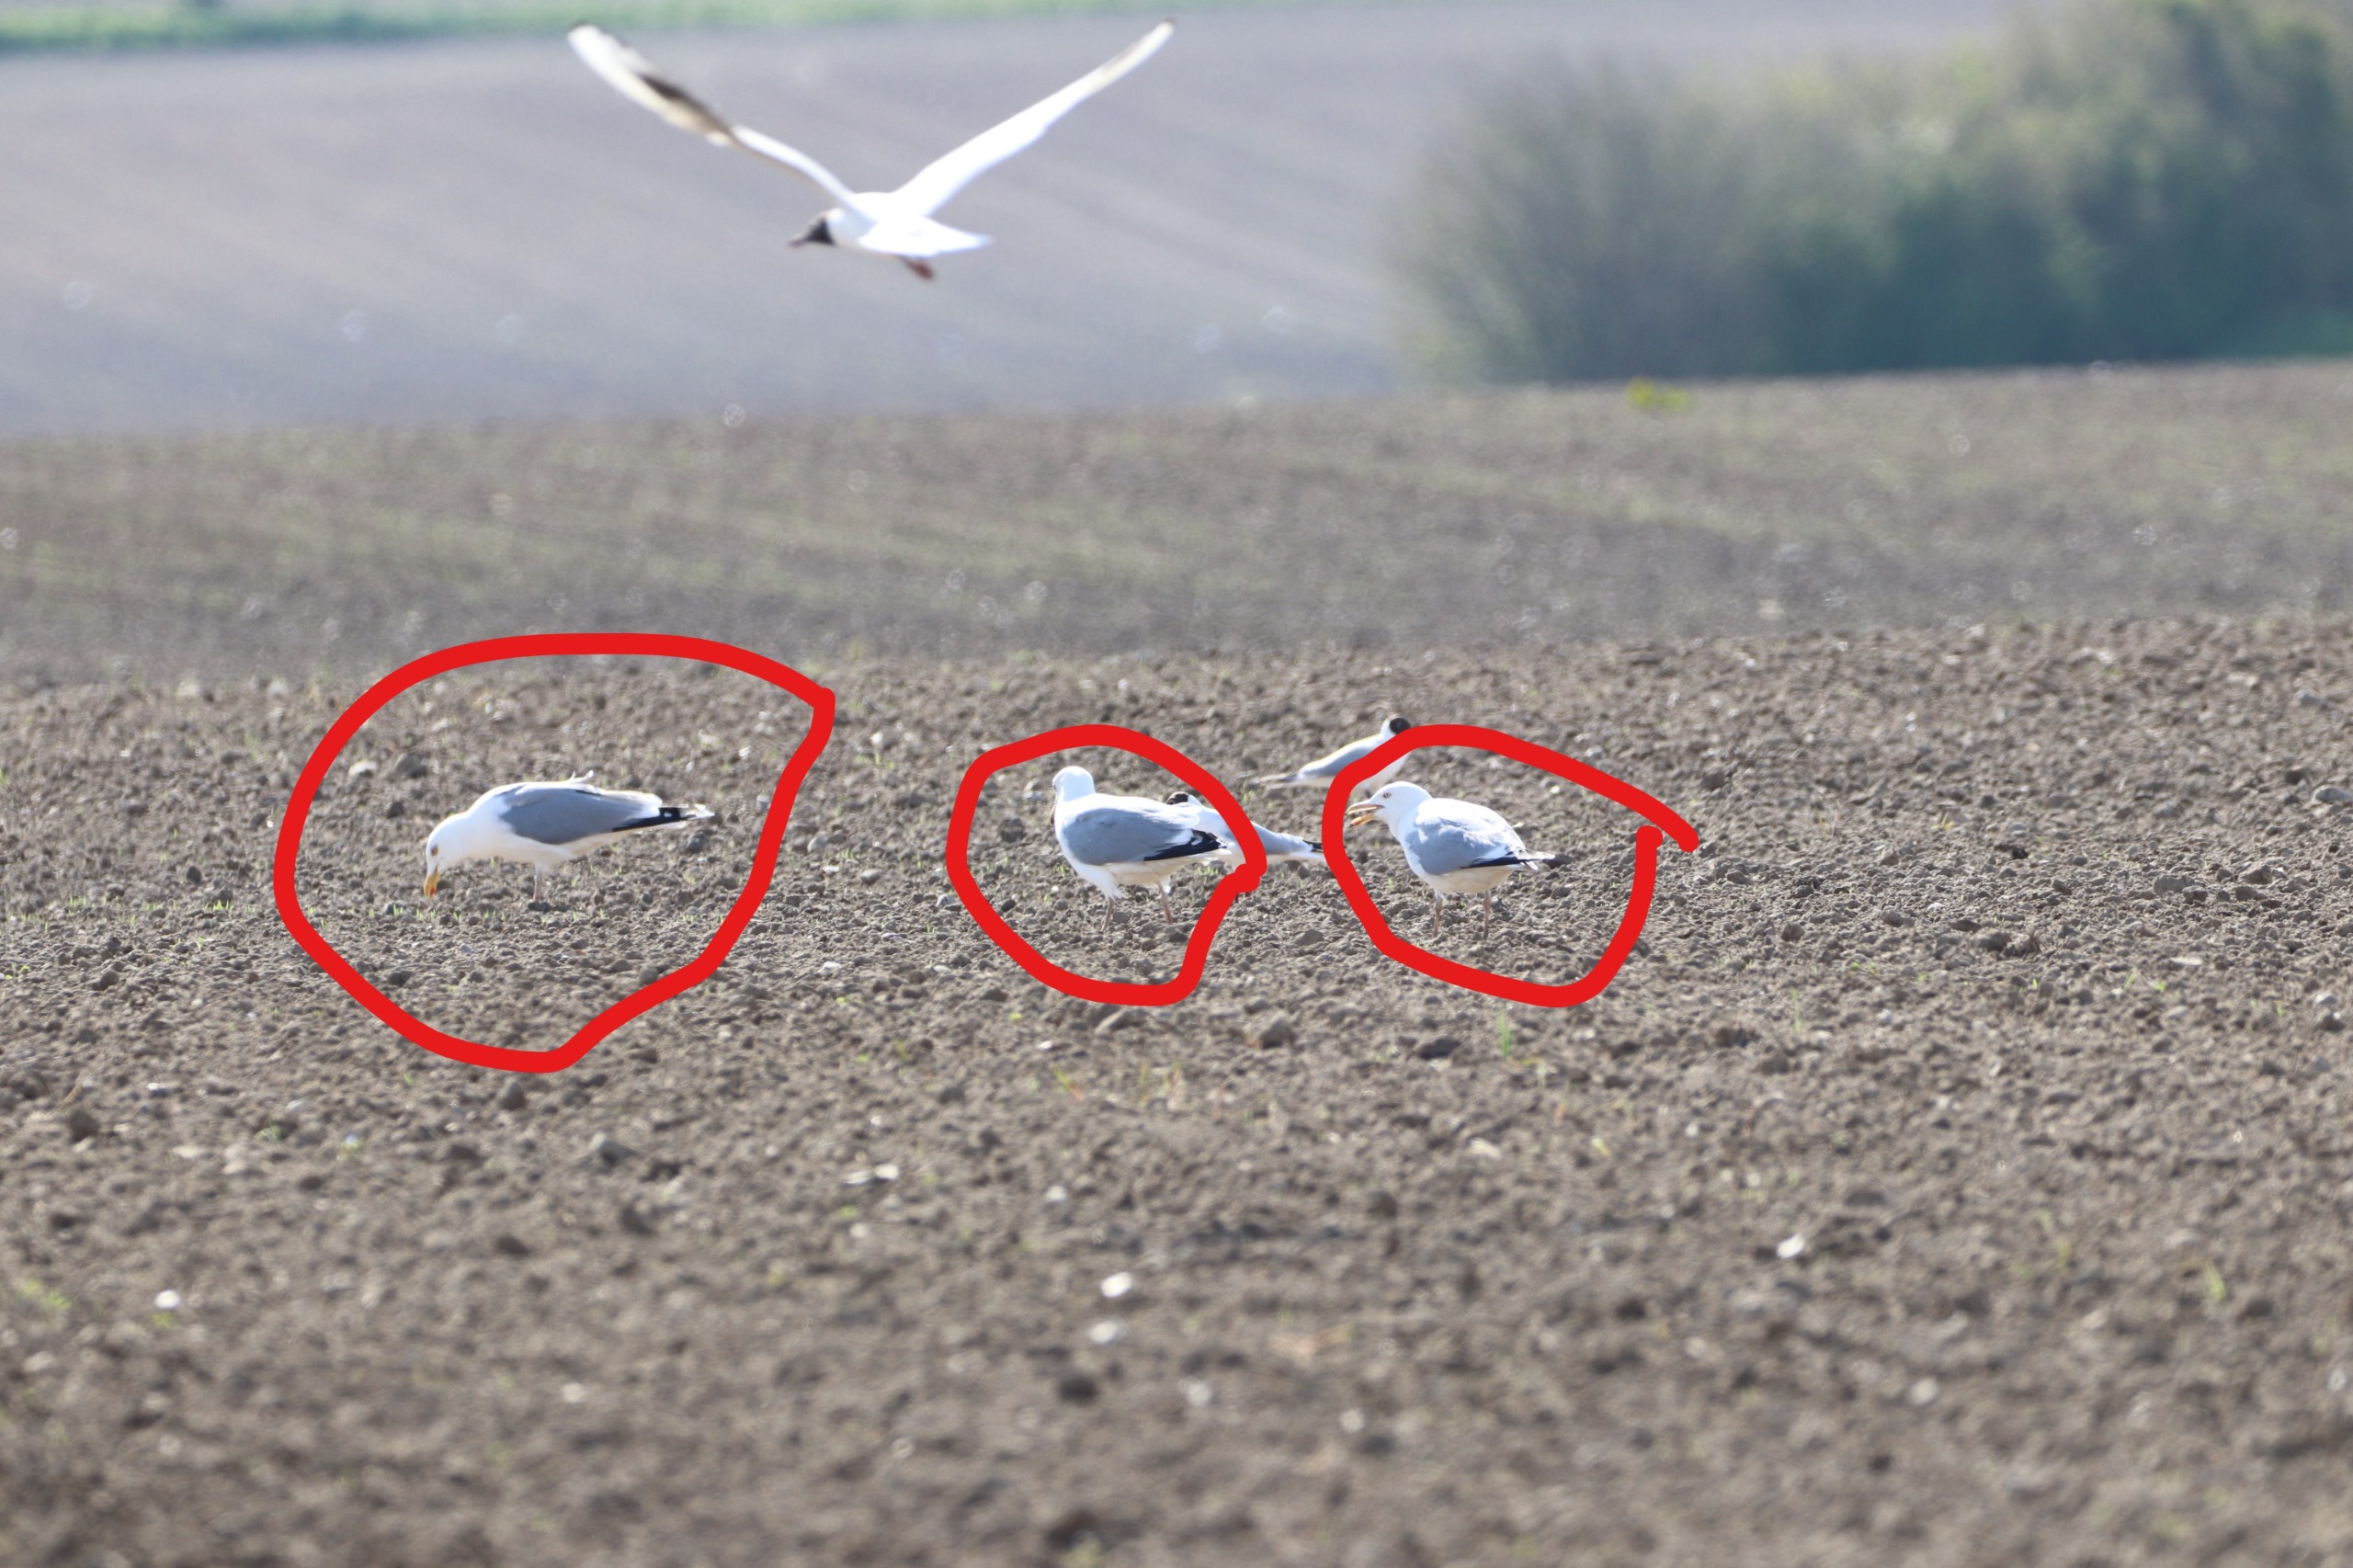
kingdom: Animalia
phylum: Chordata
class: Aves
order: Charadriiformes
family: Laridae
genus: Larus
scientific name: Larus argentatus
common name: Sølvmåge
